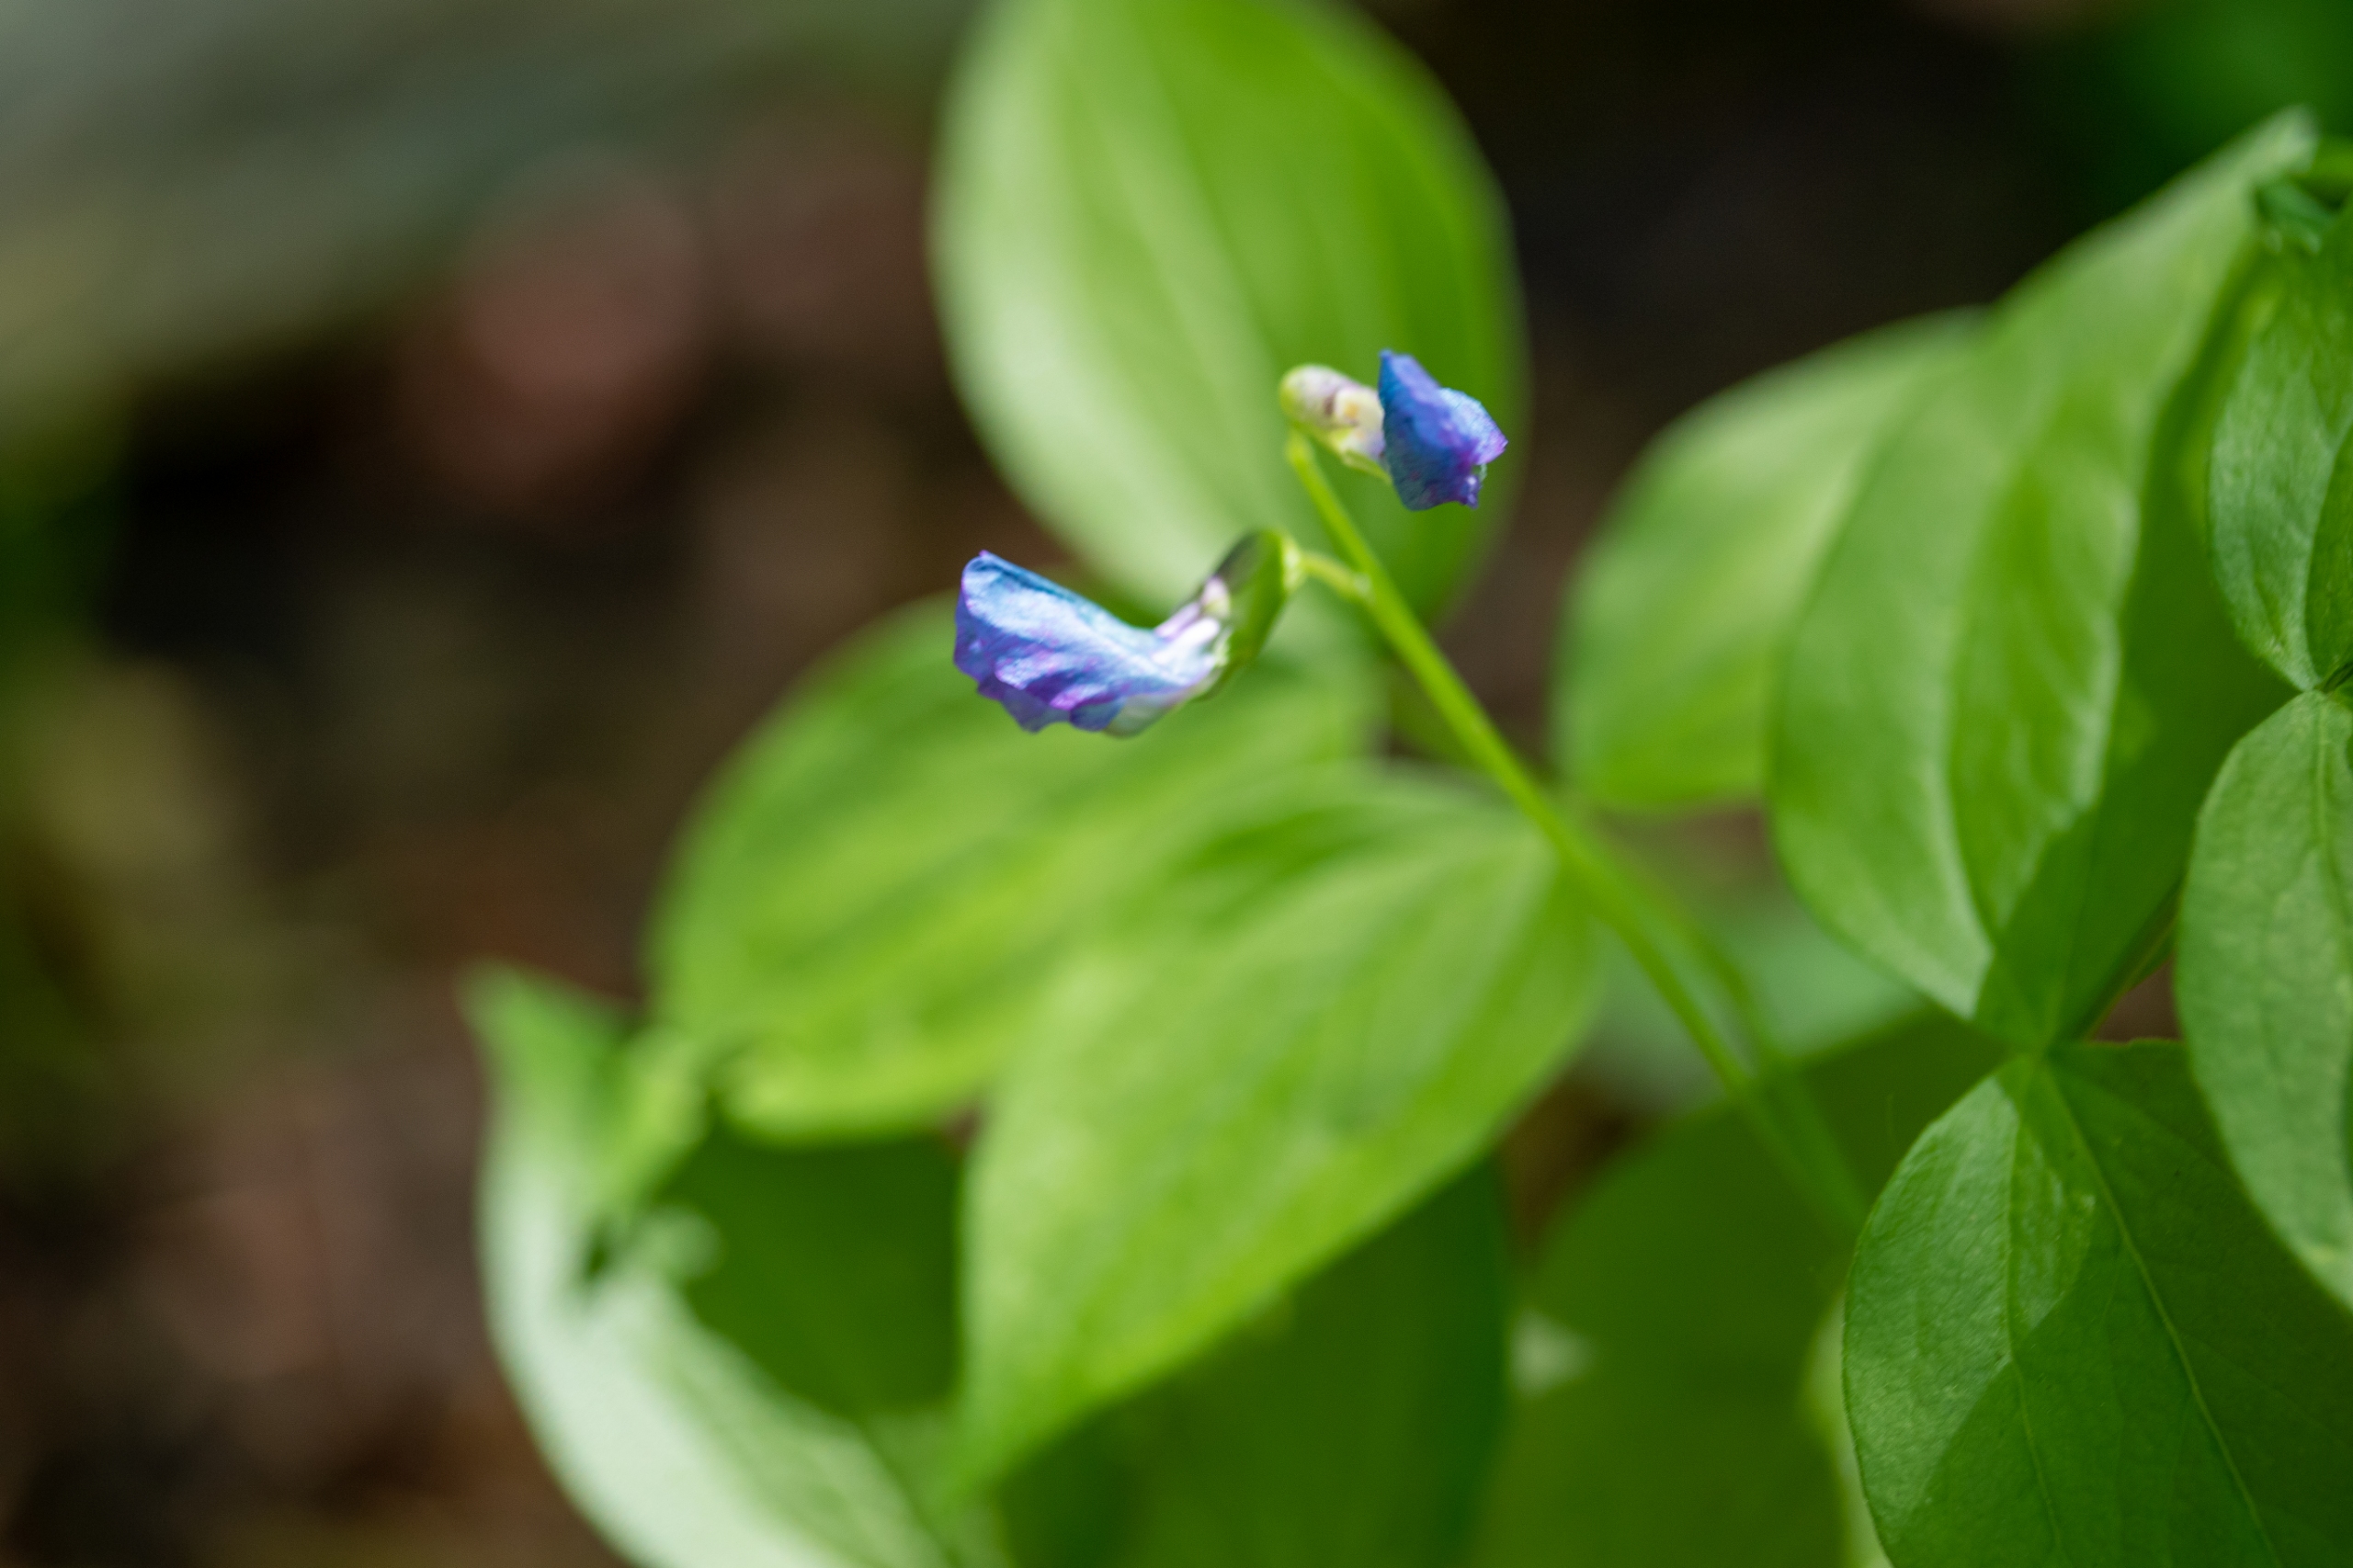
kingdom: Plantae
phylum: Tracheophyta
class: Magnoliopsida
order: Fabales
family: Fabaceae
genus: Lathyrus
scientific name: Lathyrus vernus
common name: Vår-fladbælg
